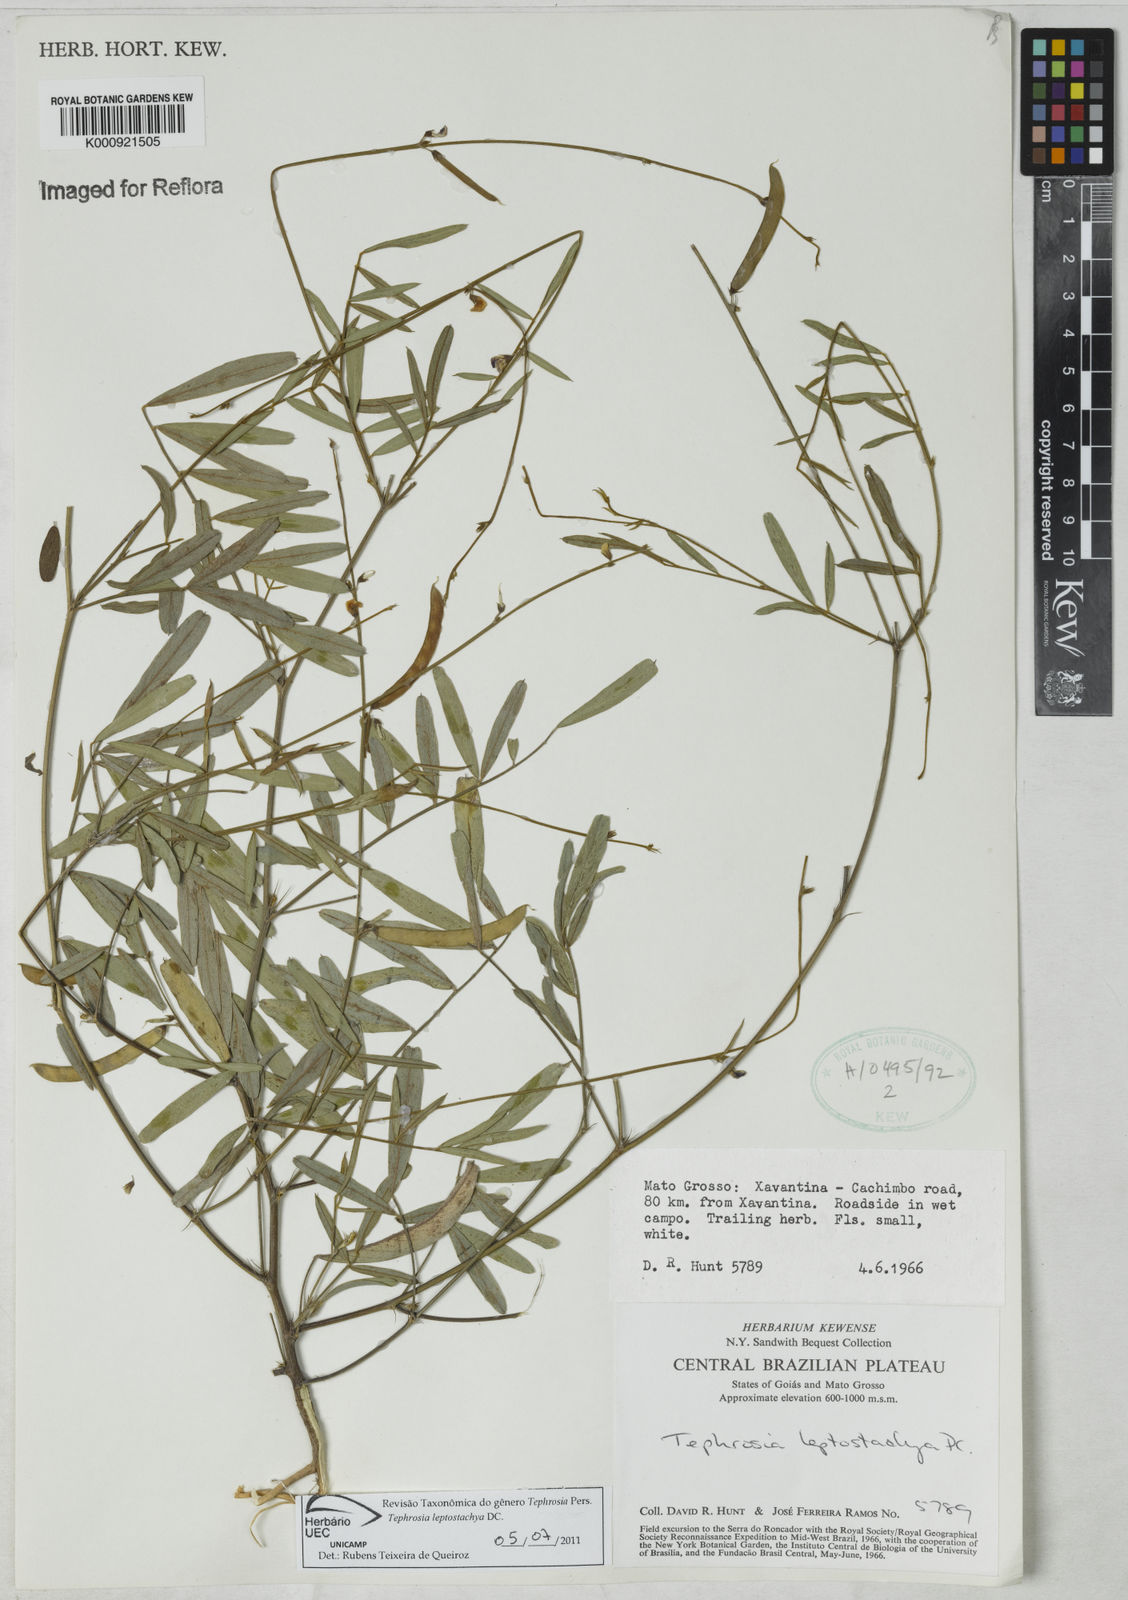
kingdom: Plantae
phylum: Tracheophyta
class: Magnoliopsida
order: Fabales
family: Fabaceae
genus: Tephrosia
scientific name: Tephrosia purpurea
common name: Fishpoison
